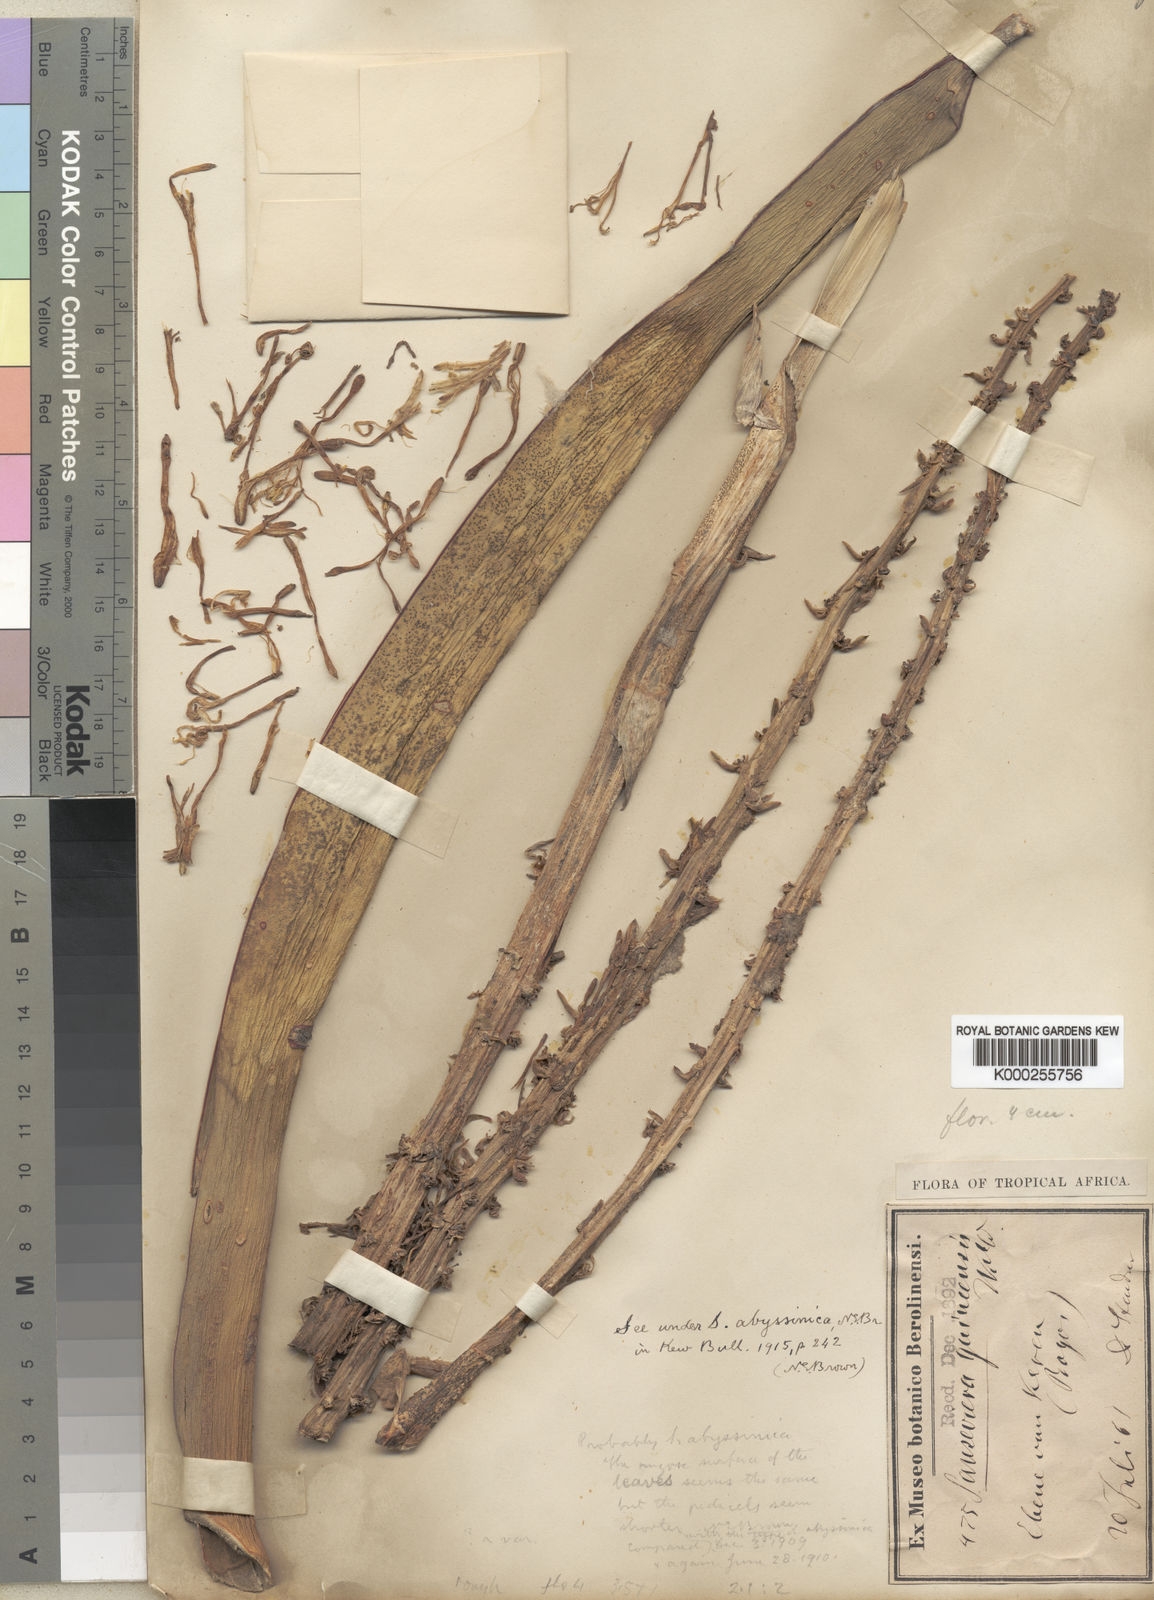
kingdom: Plantae
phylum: Tracheophyta
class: Liliopsida
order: Asparagales
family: Asparagaceae
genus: Dracaena
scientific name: Dracaena forskaliana
